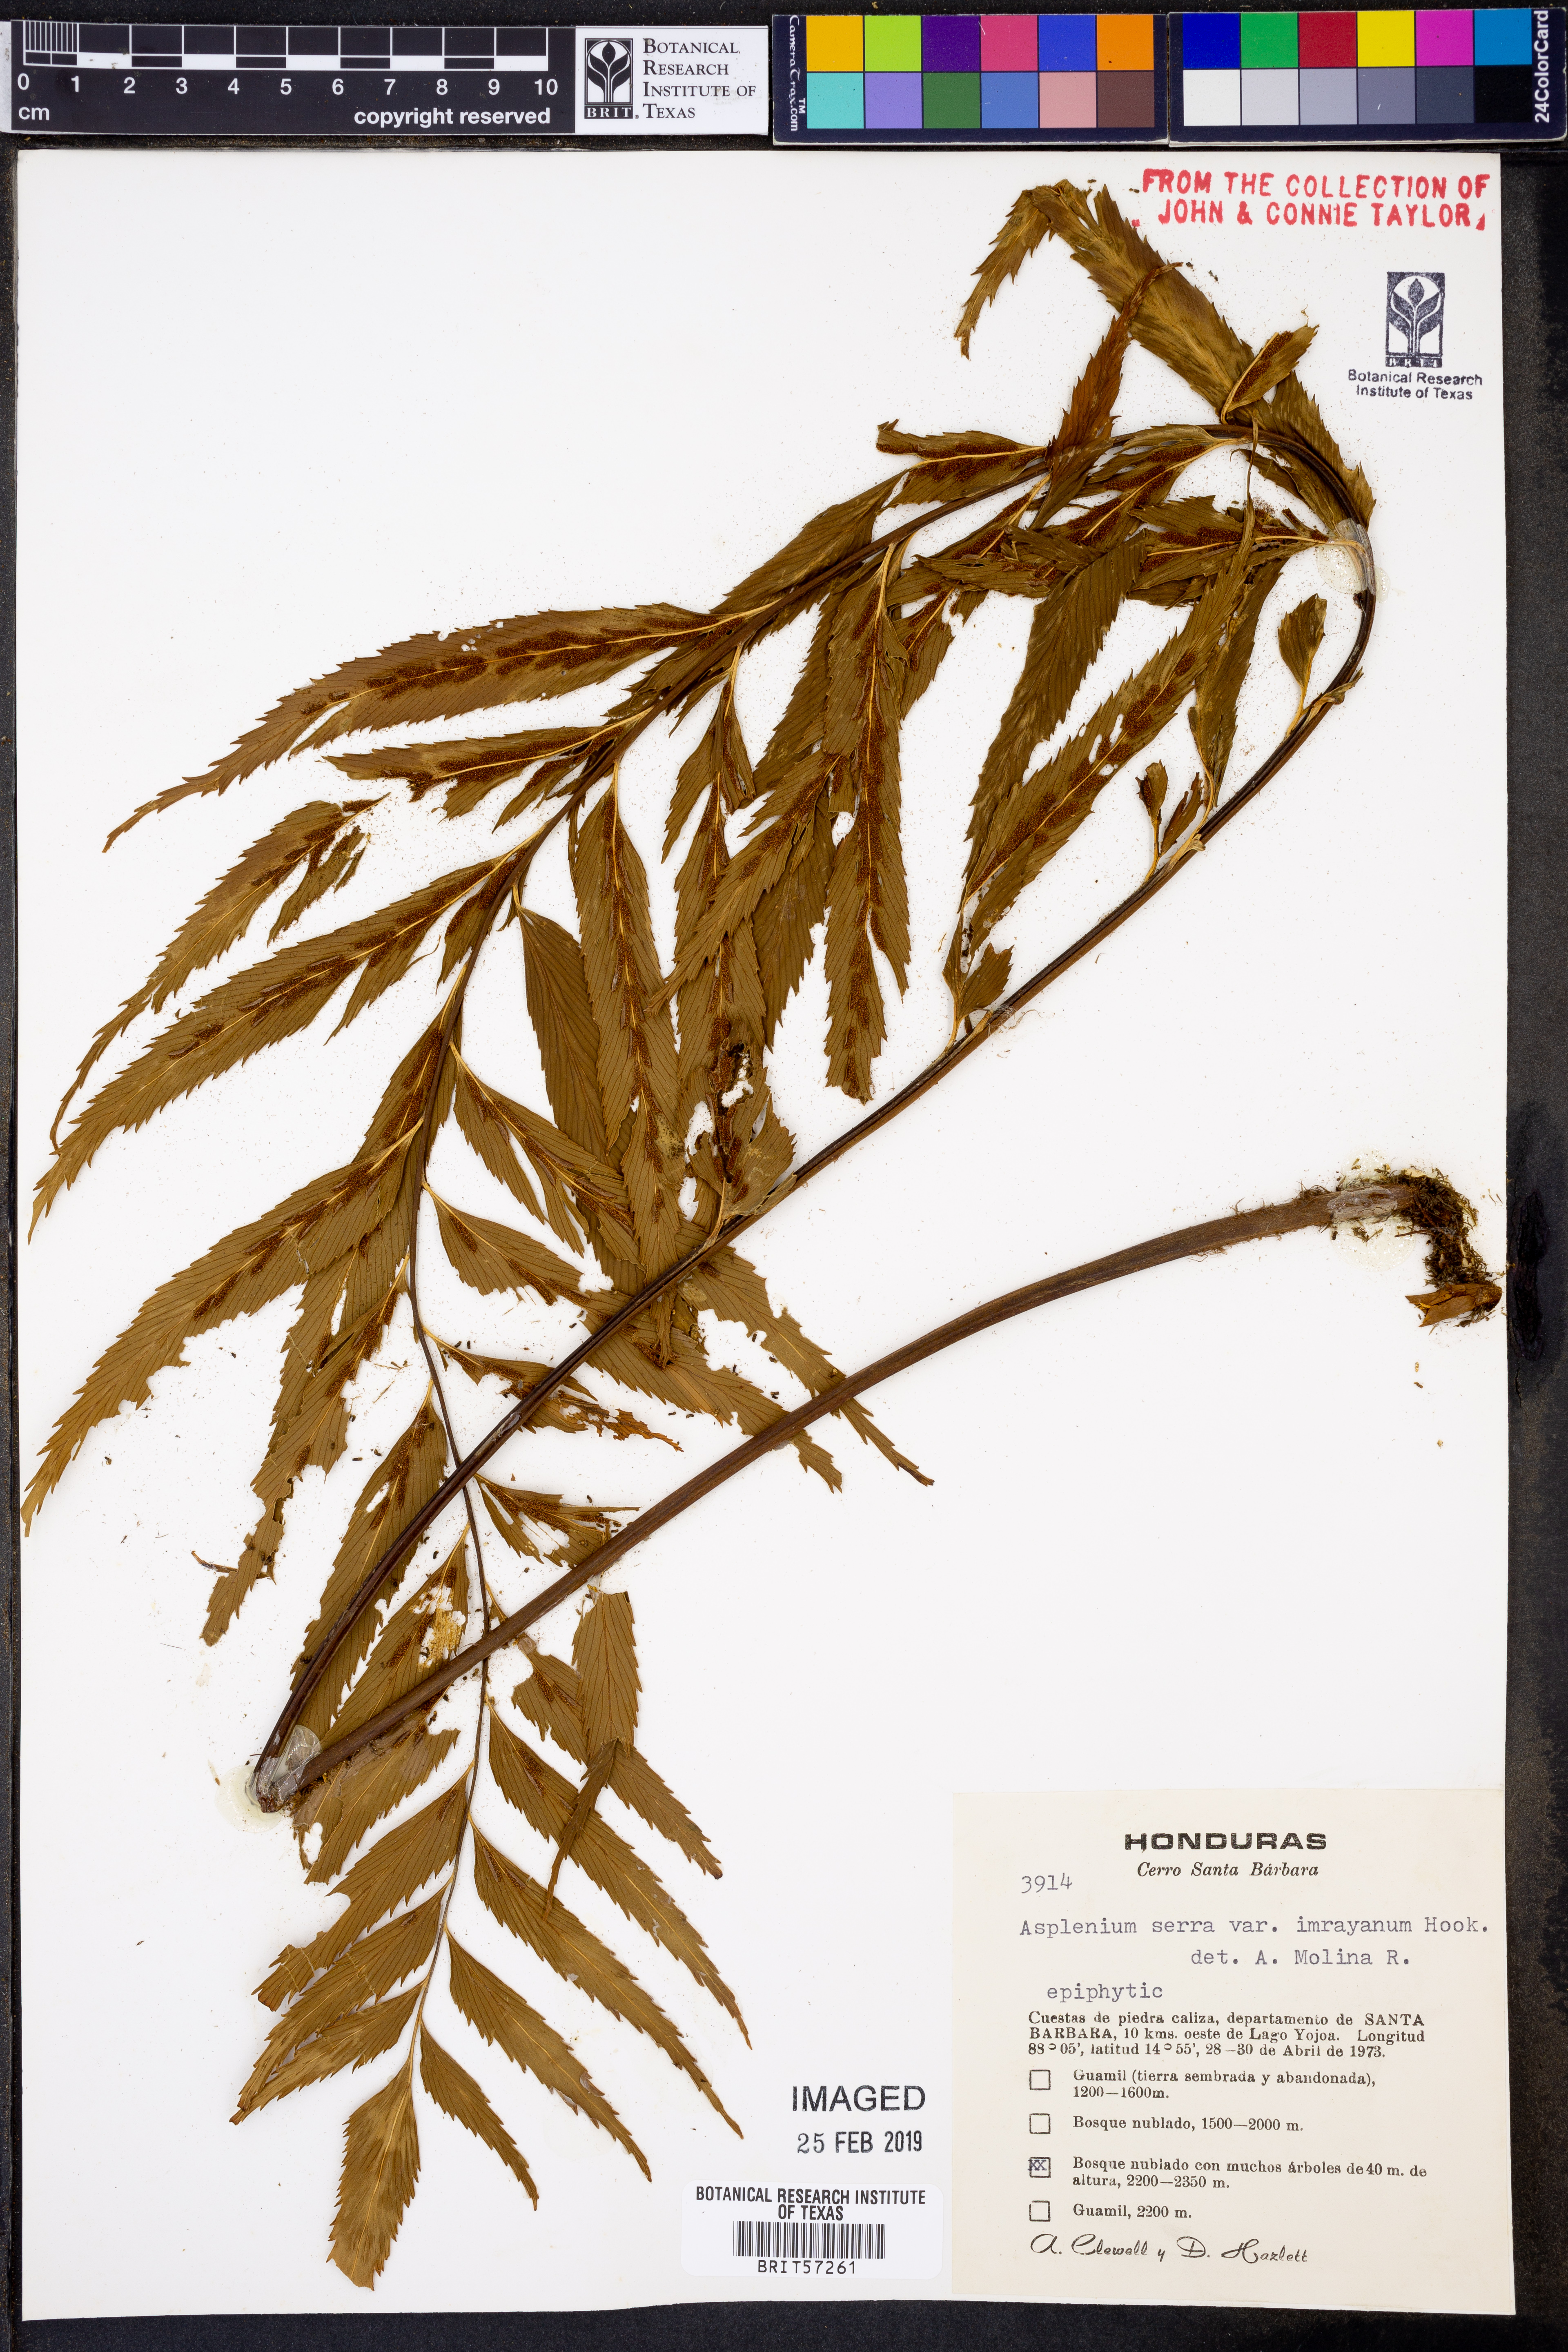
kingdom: Plantae
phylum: Tracheophyta
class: Polypodiopsida
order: Polypodiales
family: Aspleniaceae
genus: Asplenium
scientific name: Asplenium serra
